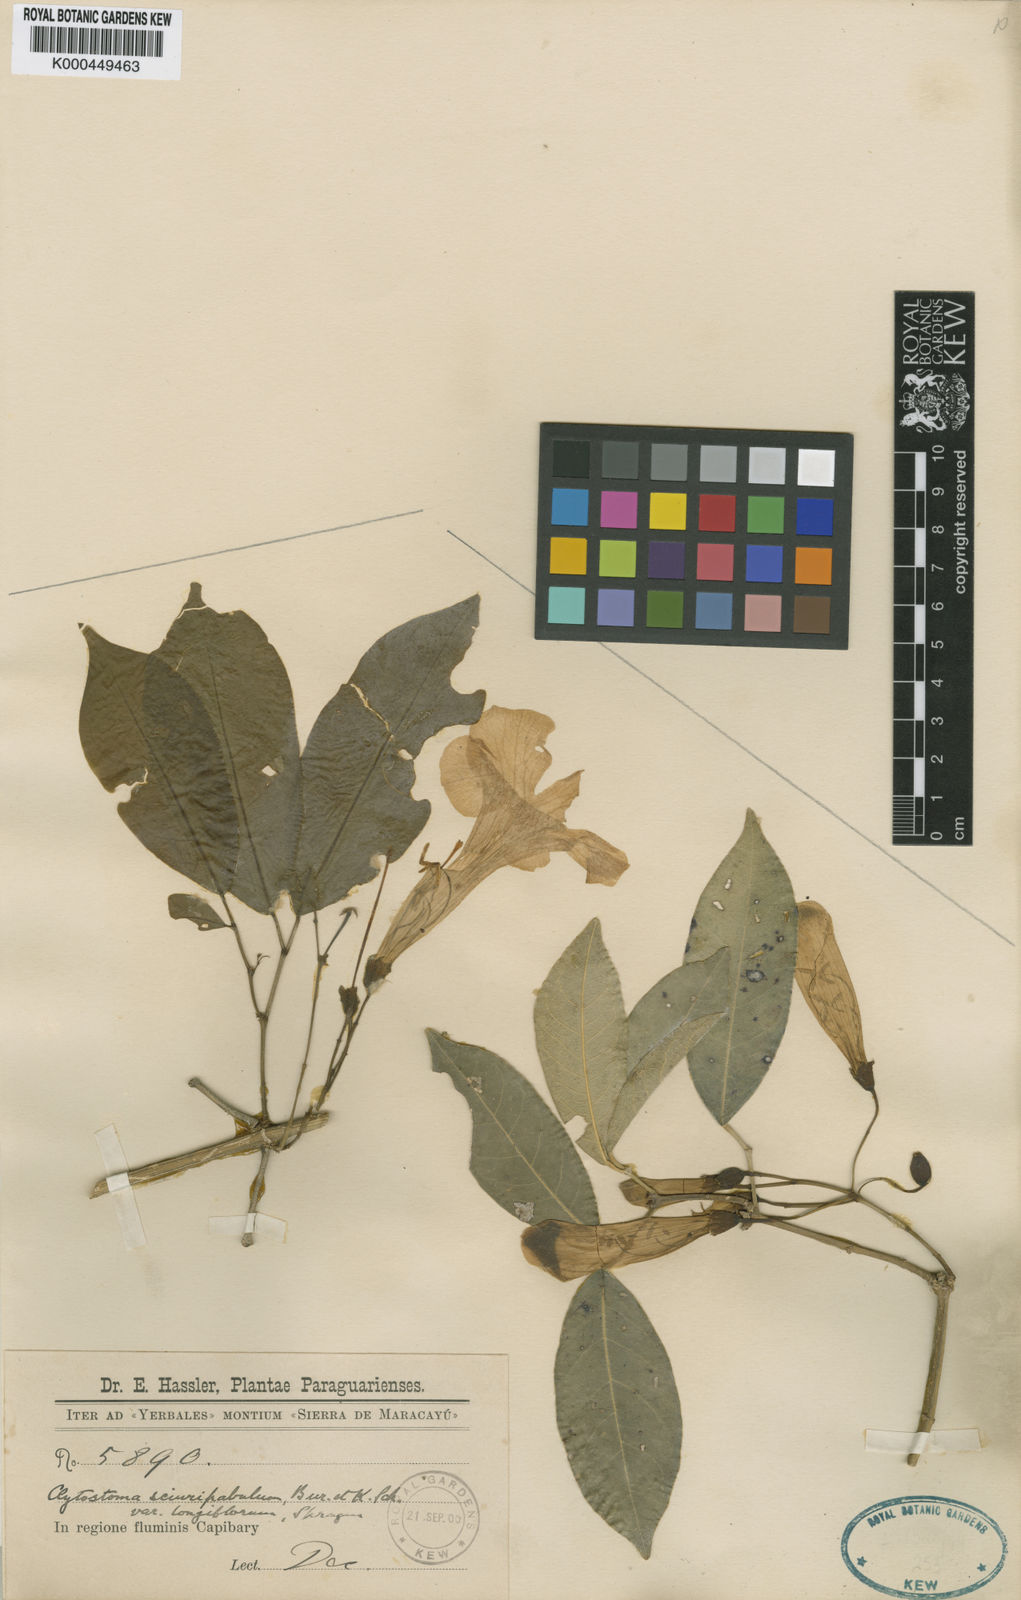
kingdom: Plantae
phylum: Tracheophyta
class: Magnoliopsida
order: Lamiales
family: Bignoniaceae
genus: Bignonia
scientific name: Bignonia sciruipabula
